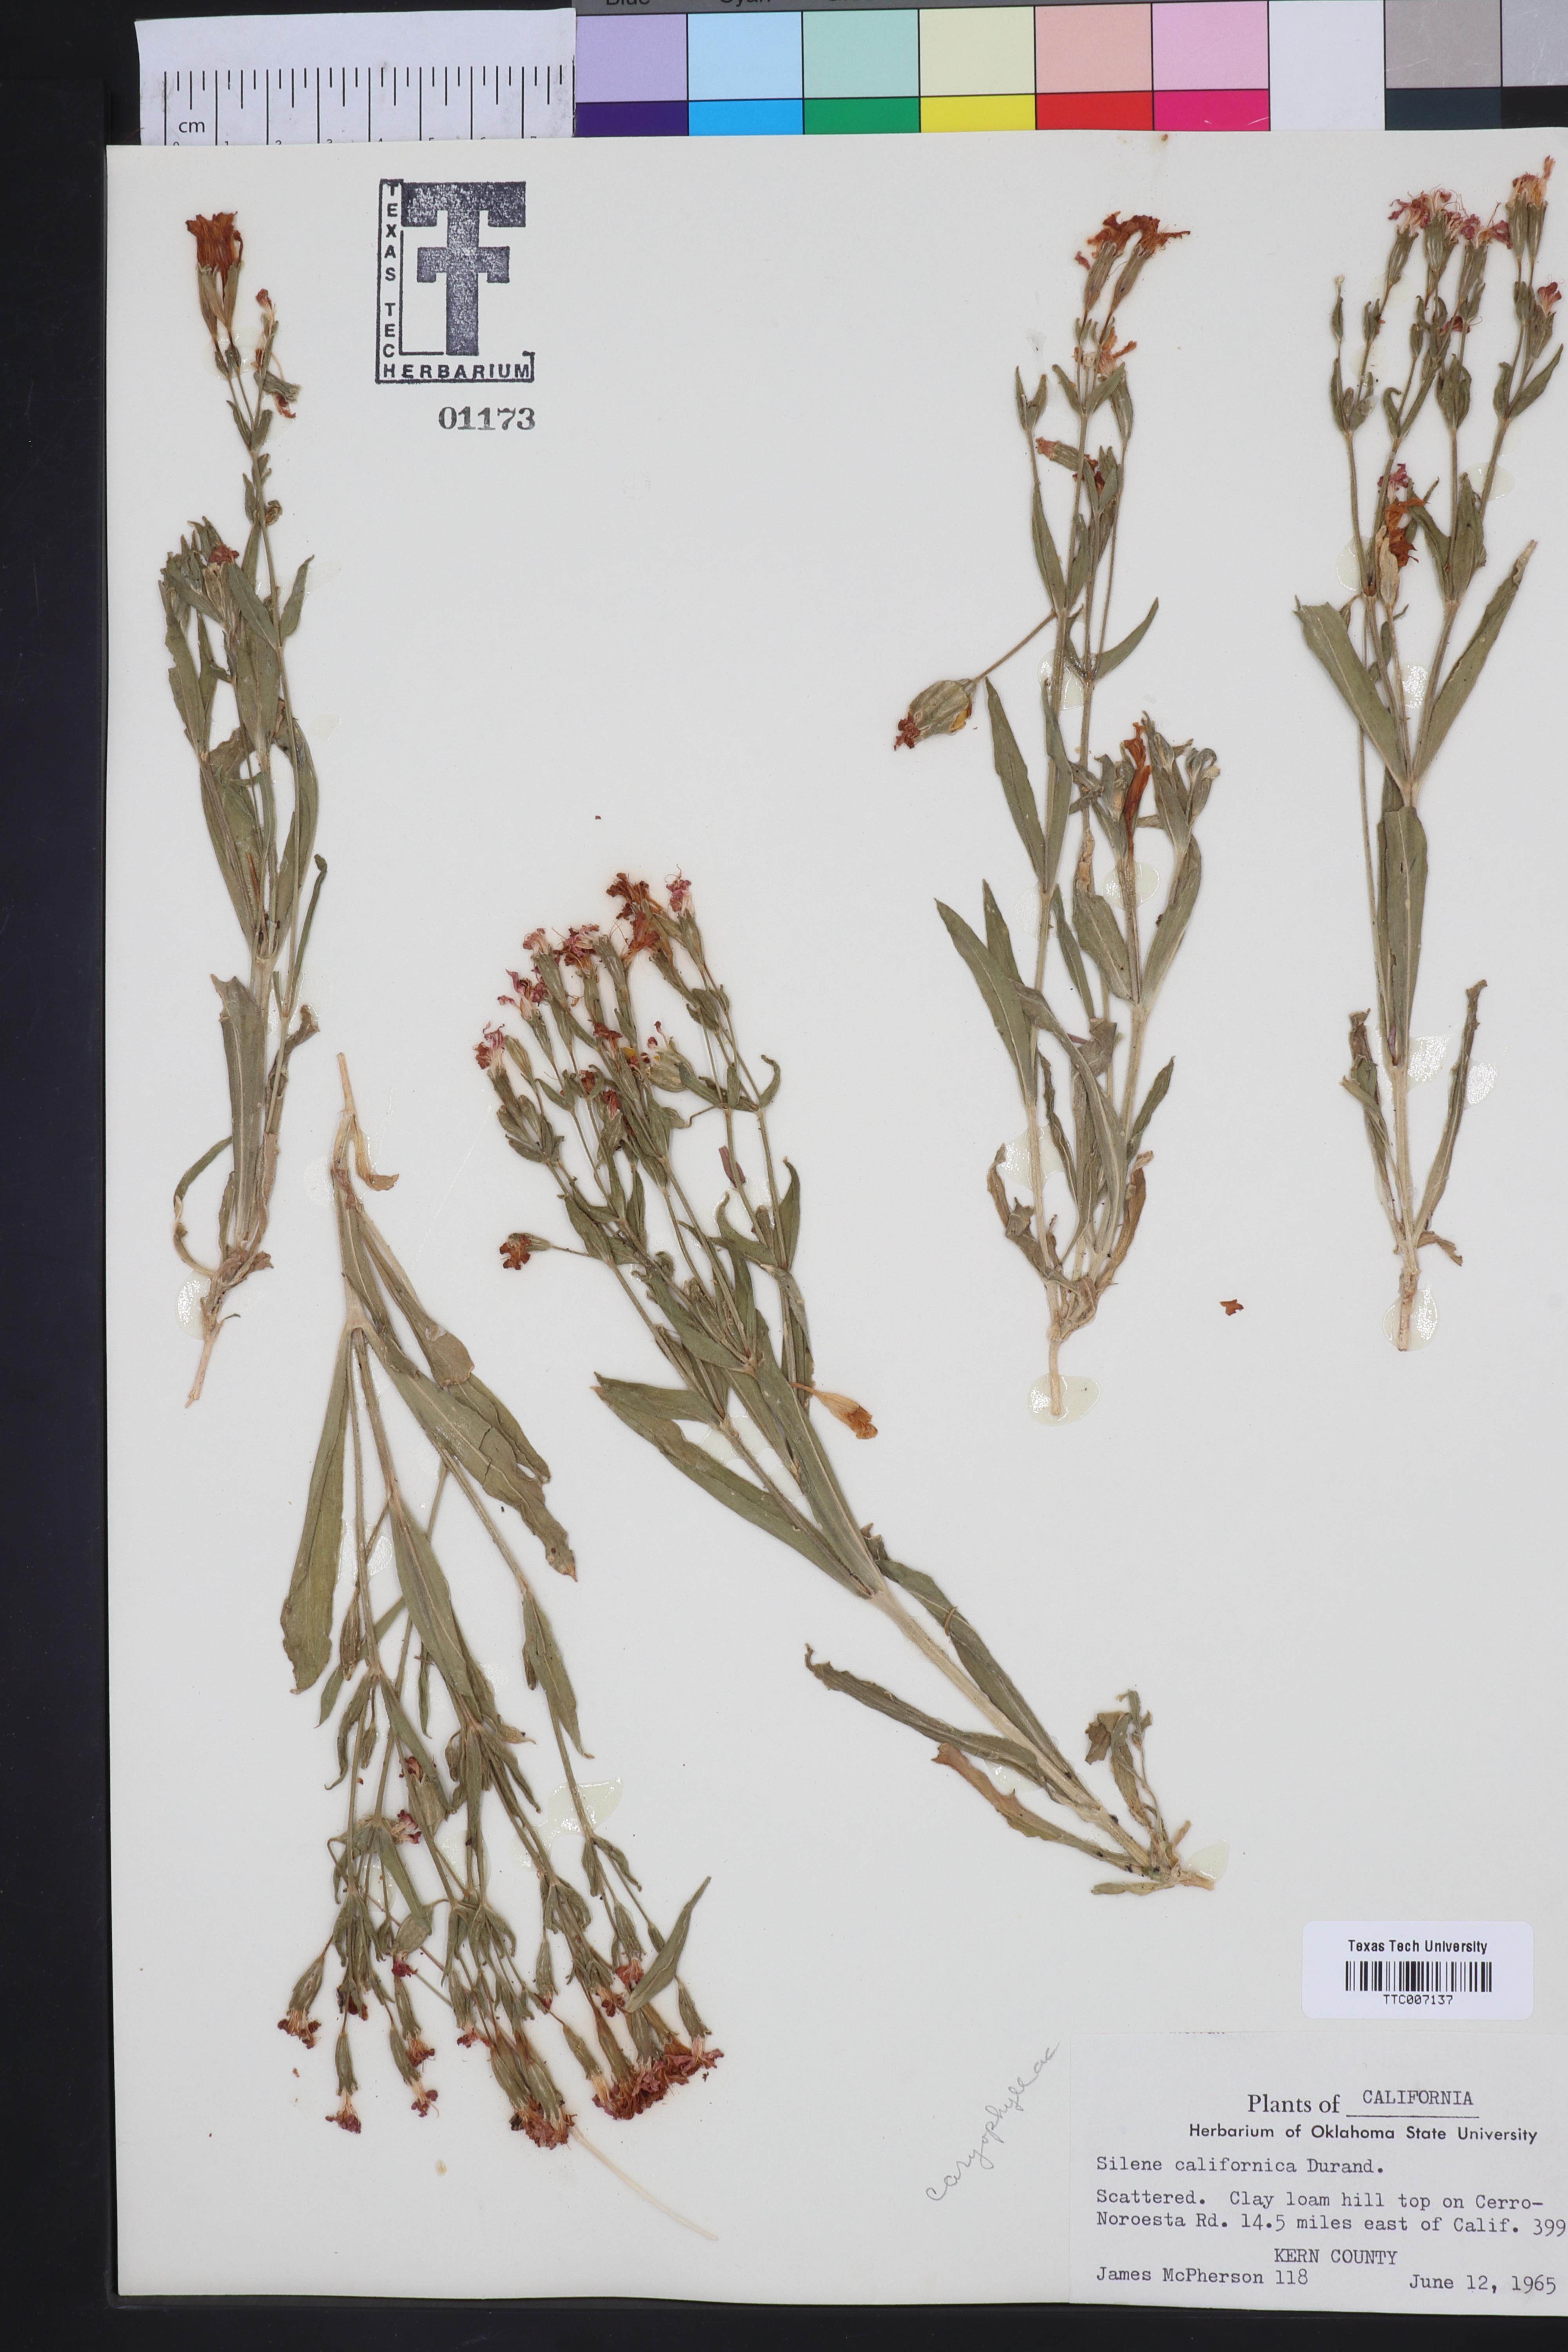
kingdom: Plantae
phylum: Tracheophyta
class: Magnoliopsida
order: Caryophyllales
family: Caryophyllaceae
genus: Silene
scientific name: Silene laciniata
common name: Indian-pink
